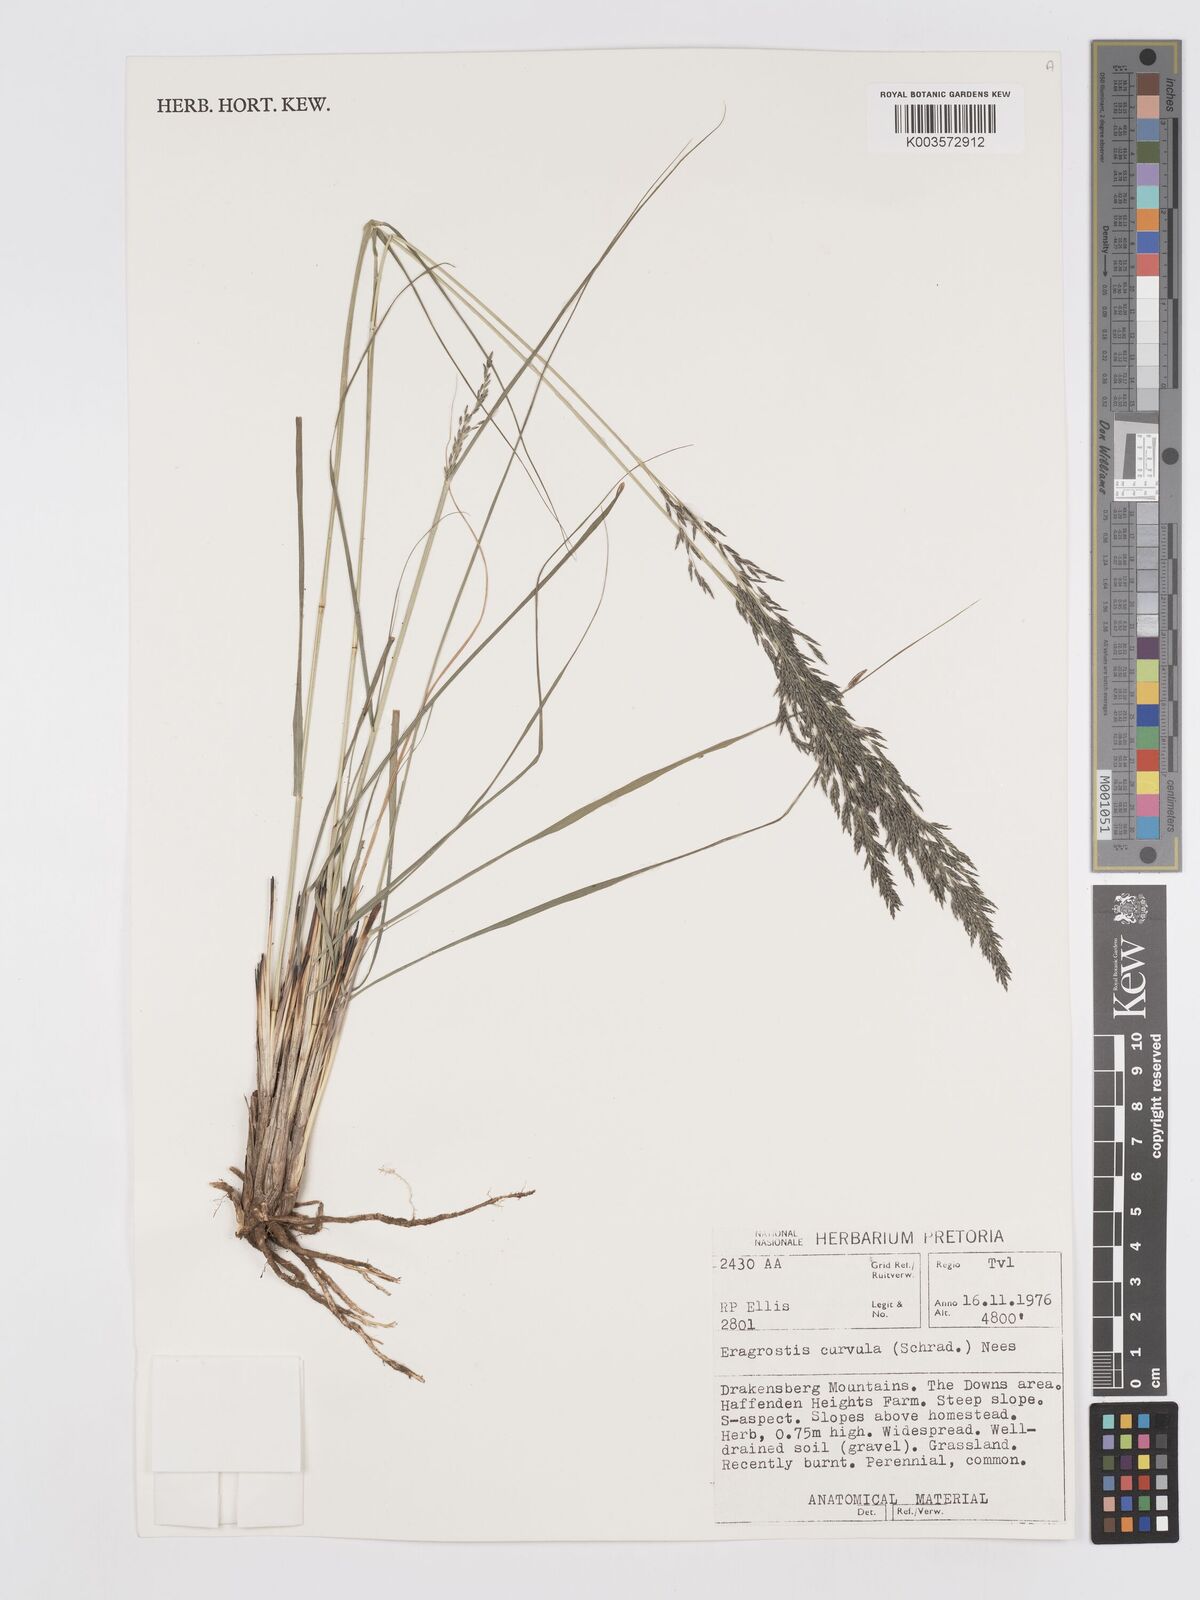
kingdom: Plantae
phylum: Tracheophyta
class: Liliopsida
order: Poales
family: Poaceae
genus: Eragrostis
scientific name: Eragrostis curvula
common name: African love-grass
